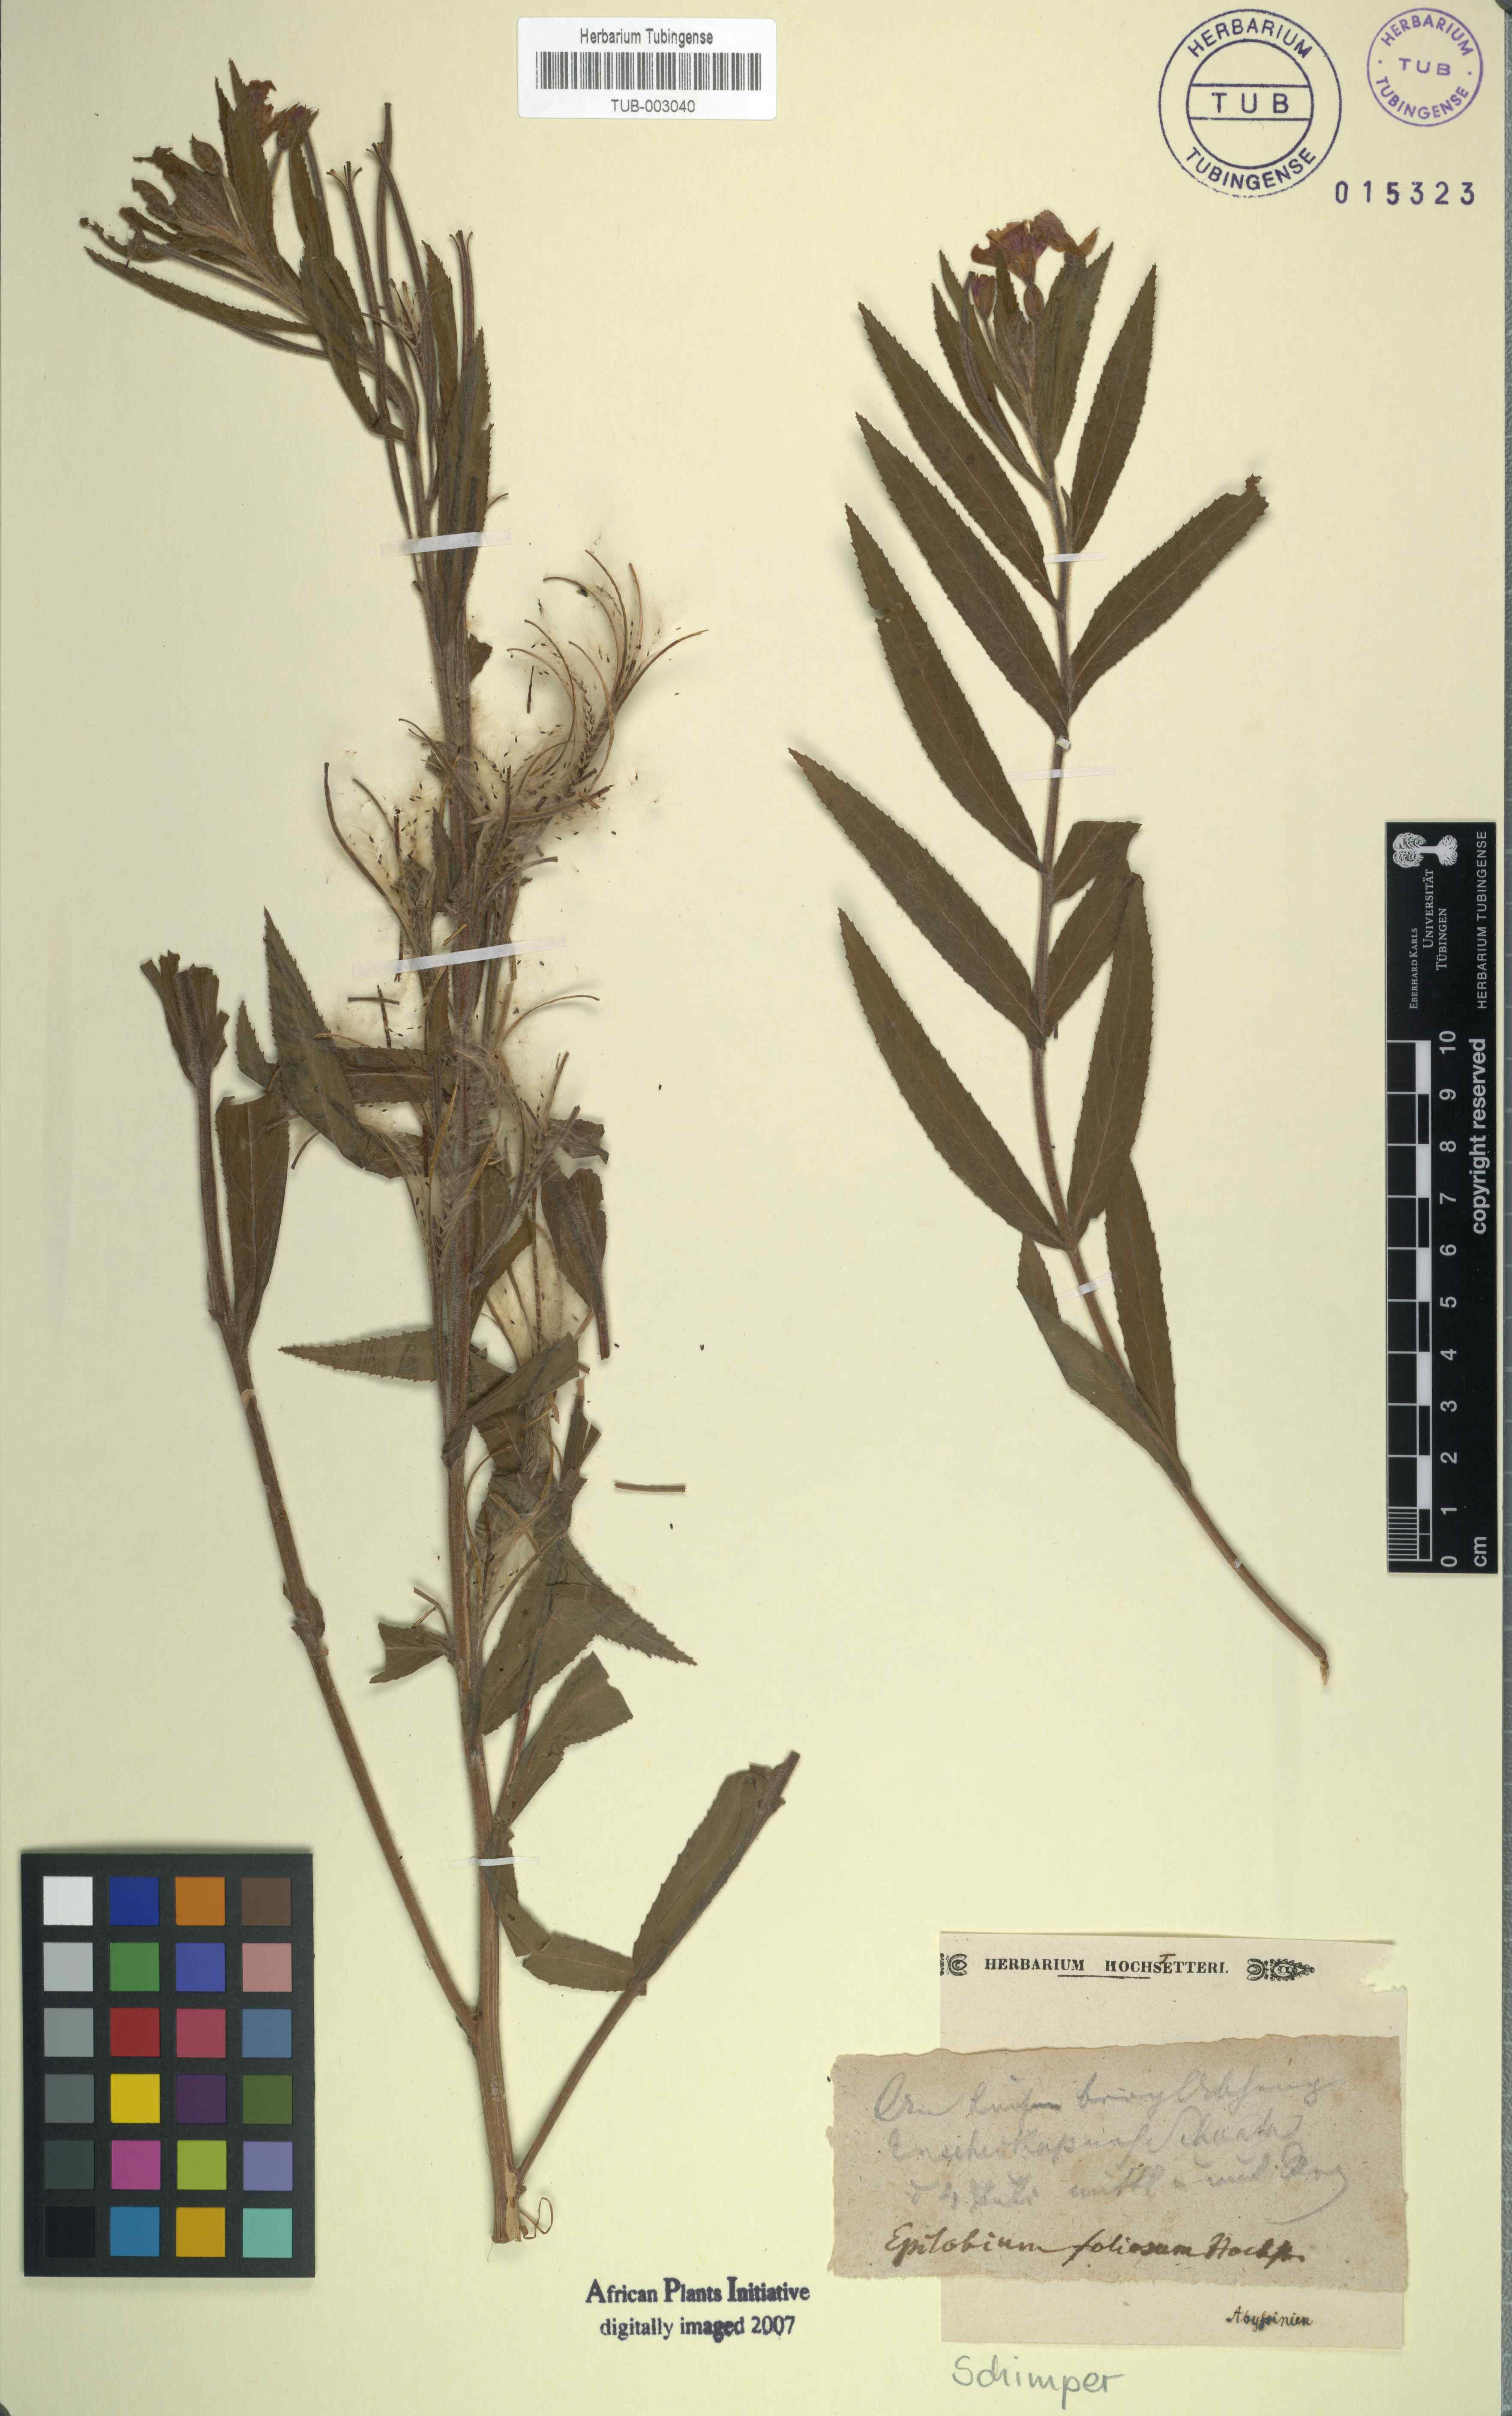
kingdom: Plantae
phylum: Tracheophyta
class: Magnoliopsida
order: Myrtales
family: Onagraceae
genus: Epilobium
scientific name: Epilobium hirsutum
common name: Great willowherb
